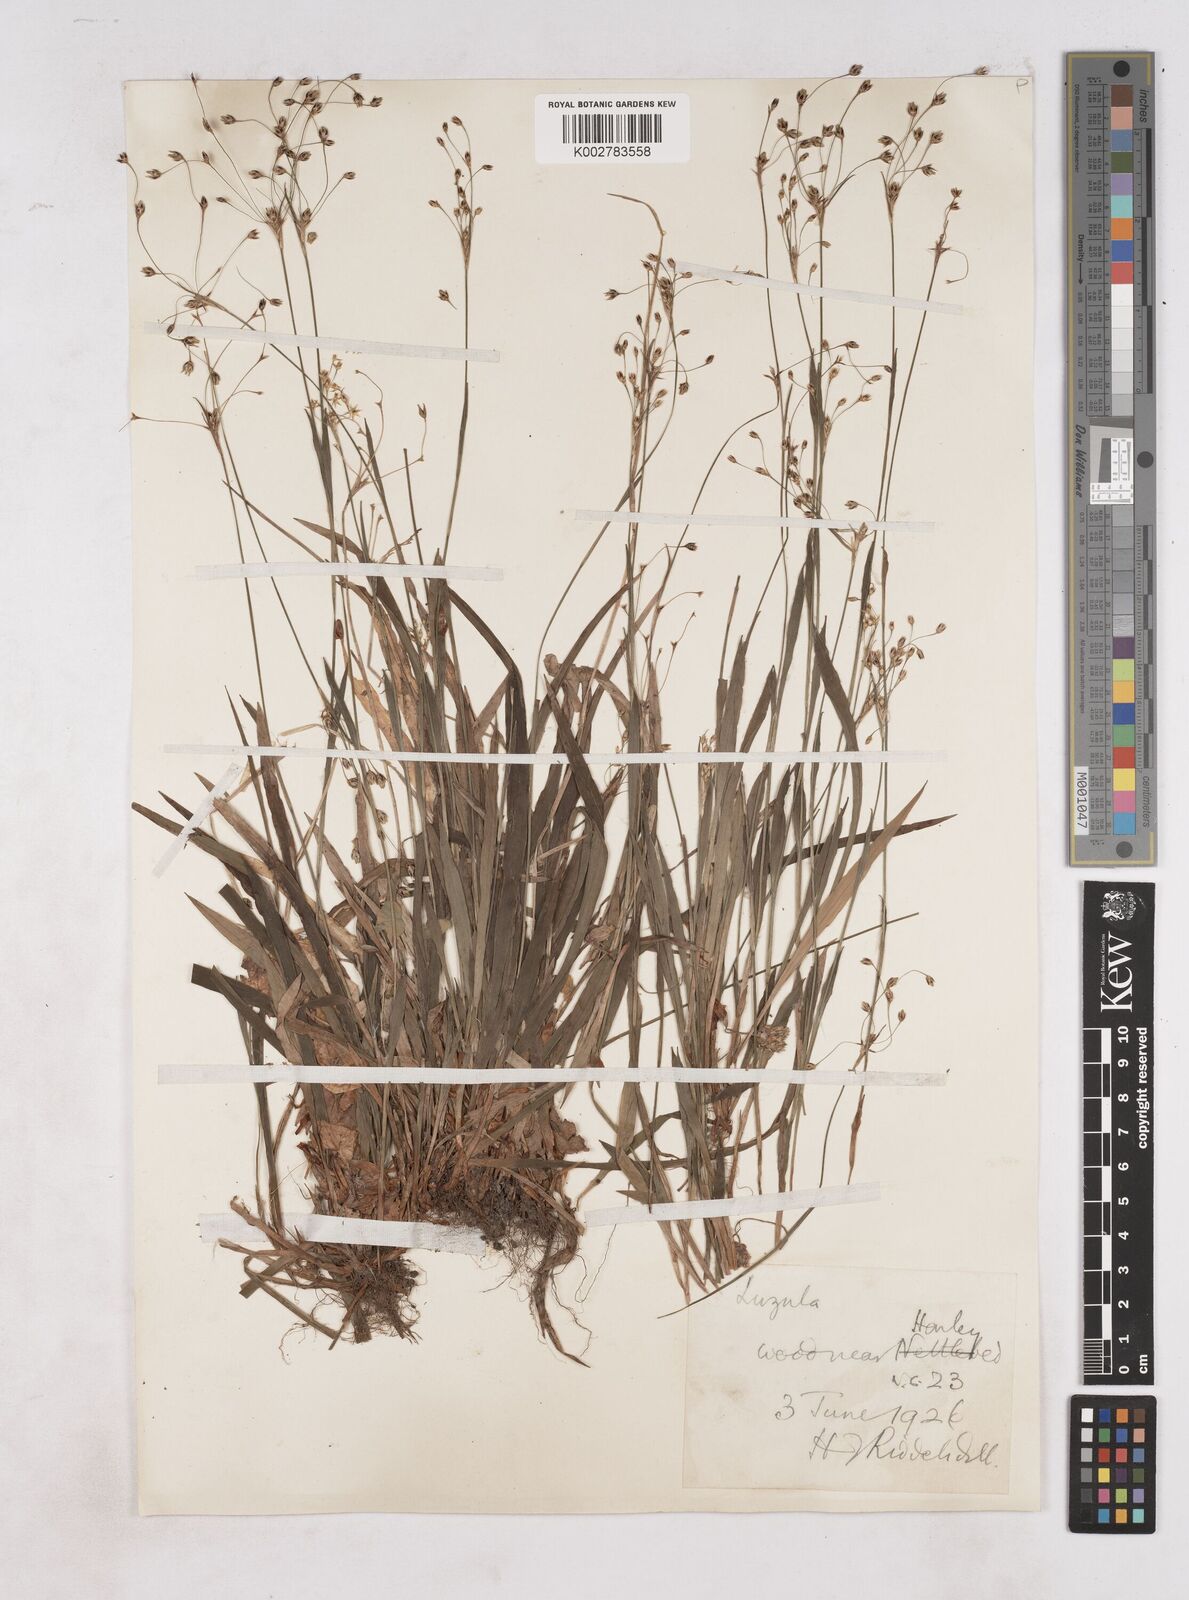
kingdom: Plantae
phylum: Tracheophyta
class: Liliopsida
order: Poales
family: Juncaceae
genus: Luzula
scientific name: Luzula
